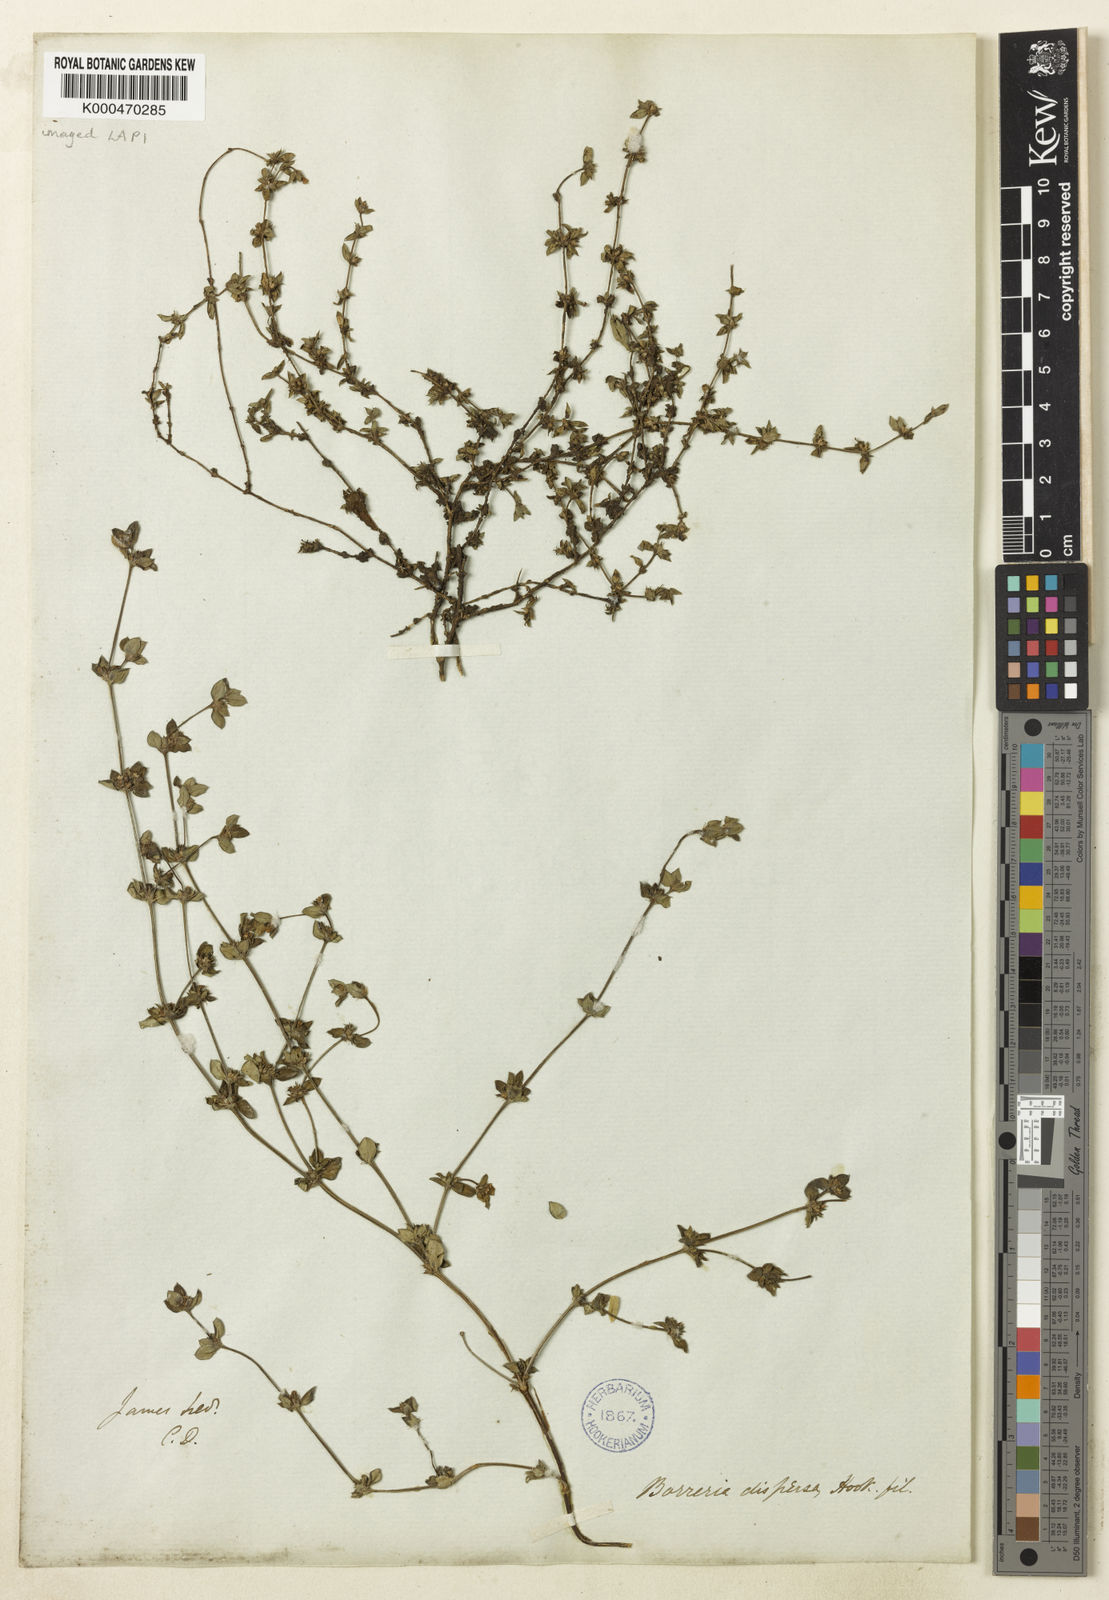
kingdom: Plantae
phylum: Tracheophyta
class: Magnoliopsida
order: Gentianales
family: Rubiaceae
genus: Spermacoce
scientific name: Spermacoce dispersa
